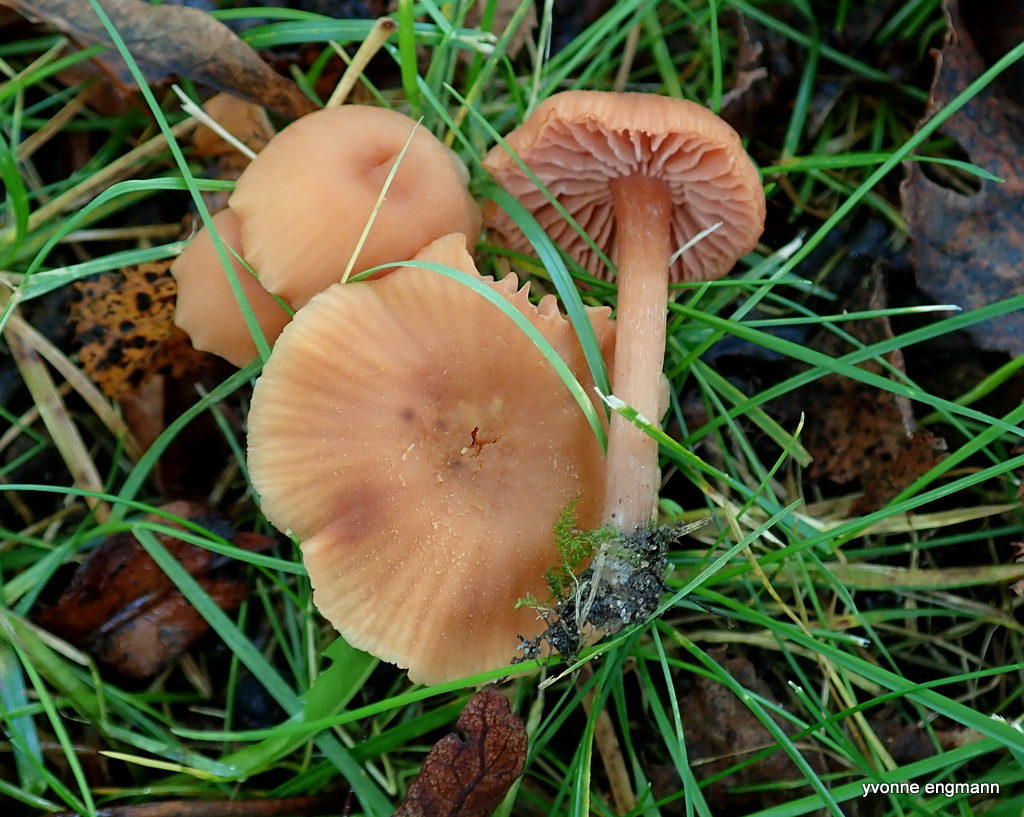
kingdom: Fungi
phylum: Basidiomycota
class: Agaricomycetes
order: Agaricales
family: Hydnangiaceae
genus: Laccaria
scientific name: Laccaria laccata
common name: rød ametysthat
